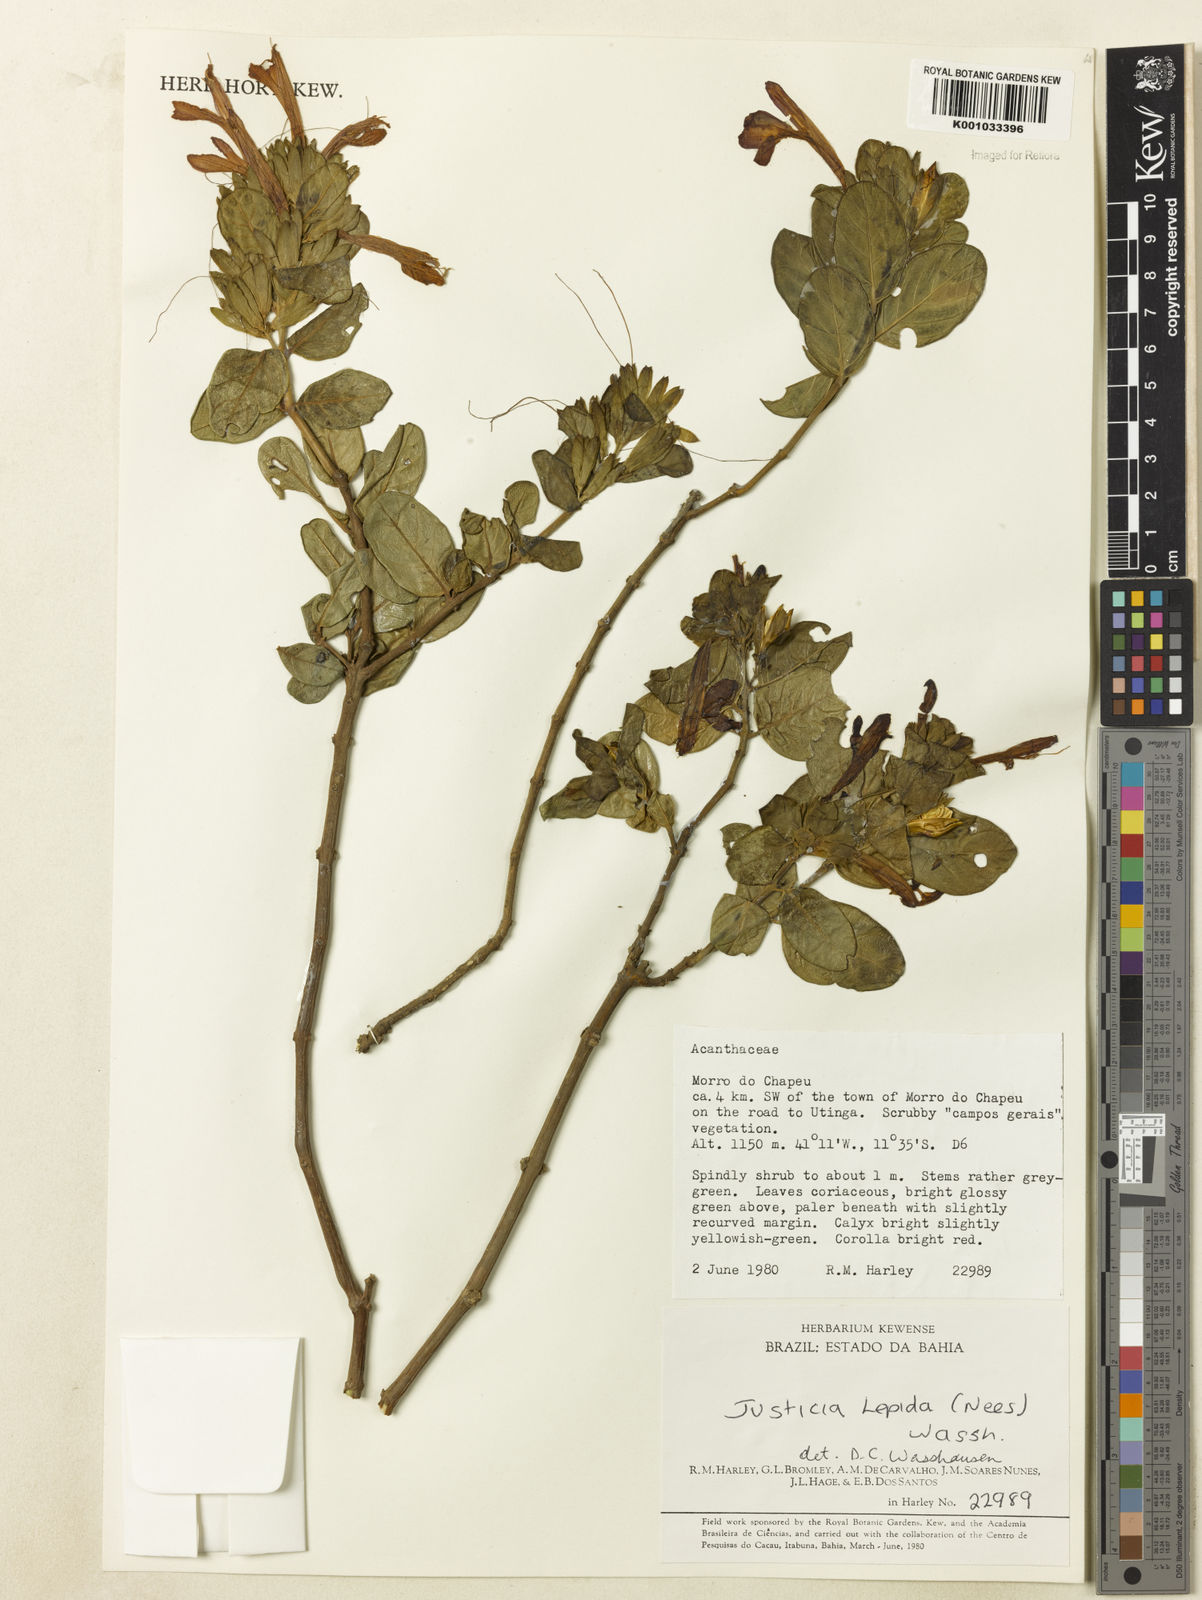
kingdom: Plantae
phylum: Tracheophyta
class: Magnoliopsida
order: Lamiales
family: Acanthaceae
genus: Justicia
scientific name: Justicia lepida
